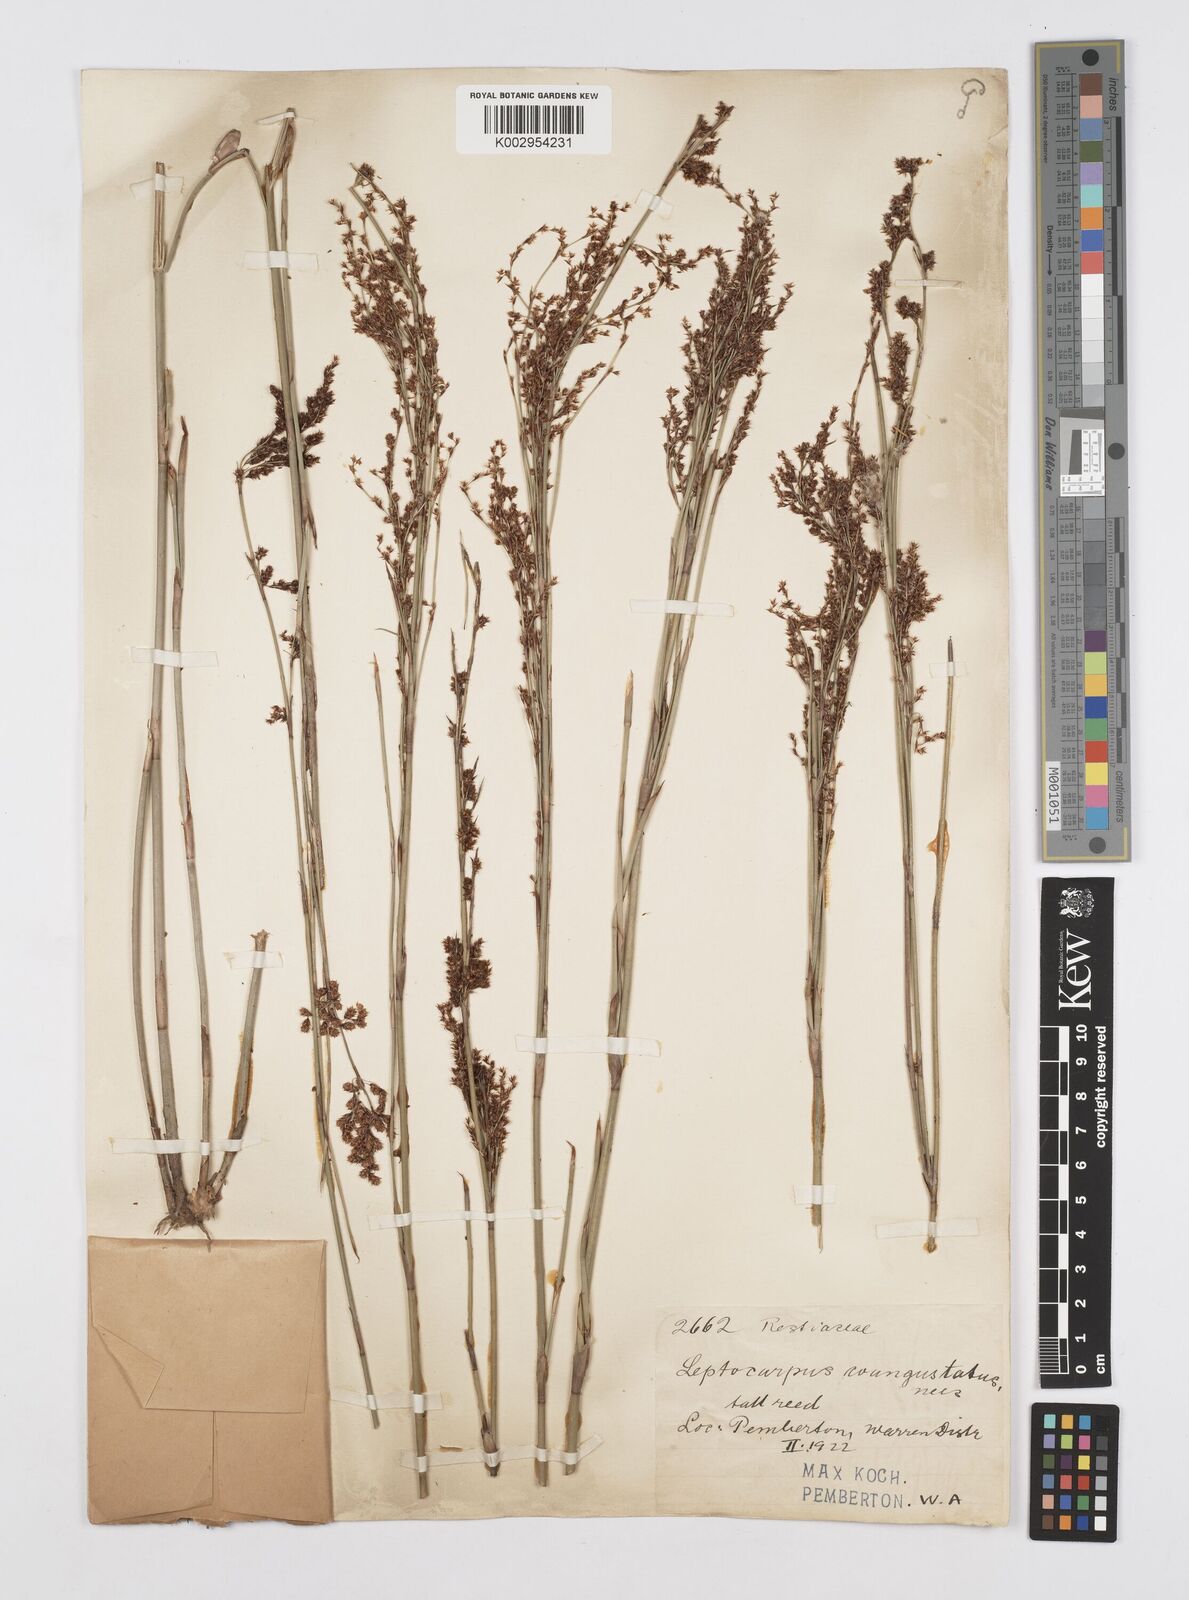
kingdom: Plantae
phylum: Tracheophyta
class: Liliopsida
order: Poales
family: Restionaceae
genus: Leptocarpus
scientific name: Leptocarpus coangustatus
